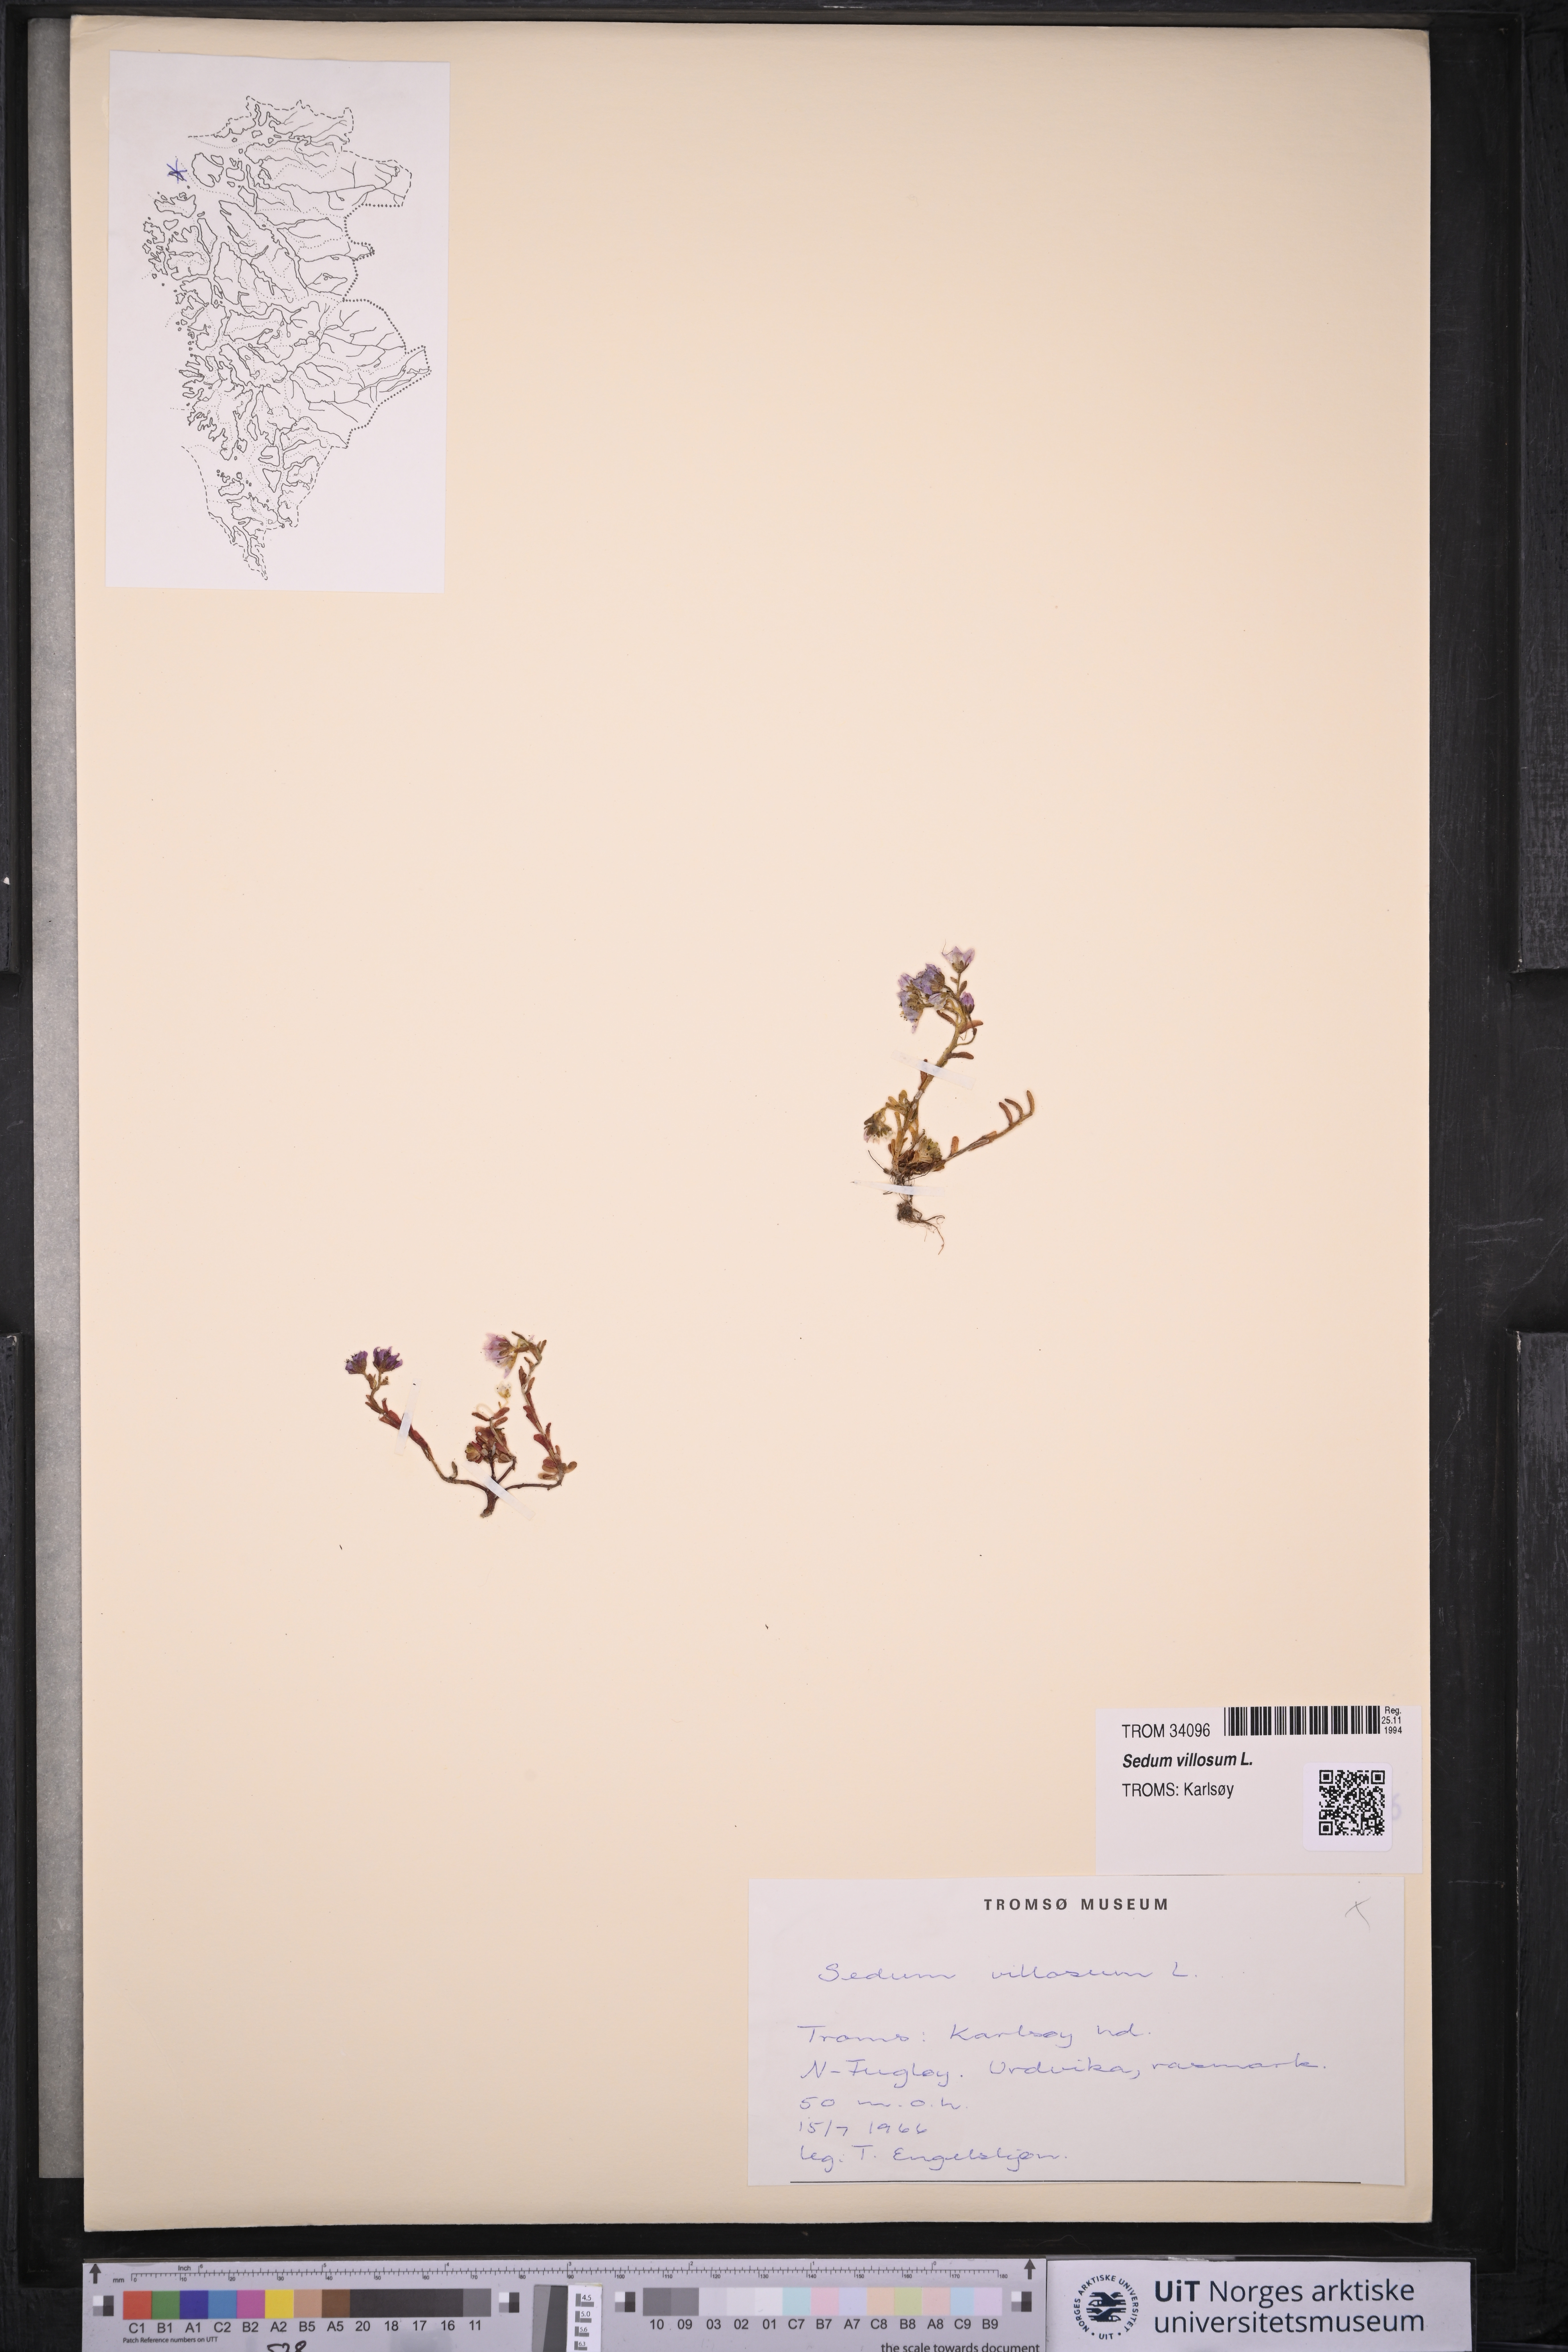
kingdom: Plantae
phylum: Tracheophyta
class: Magnoliopsida
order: Saxifragales
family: Crassulaceae
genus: Sedum
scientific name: Sedum villosum
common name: Hairy stonecrop
